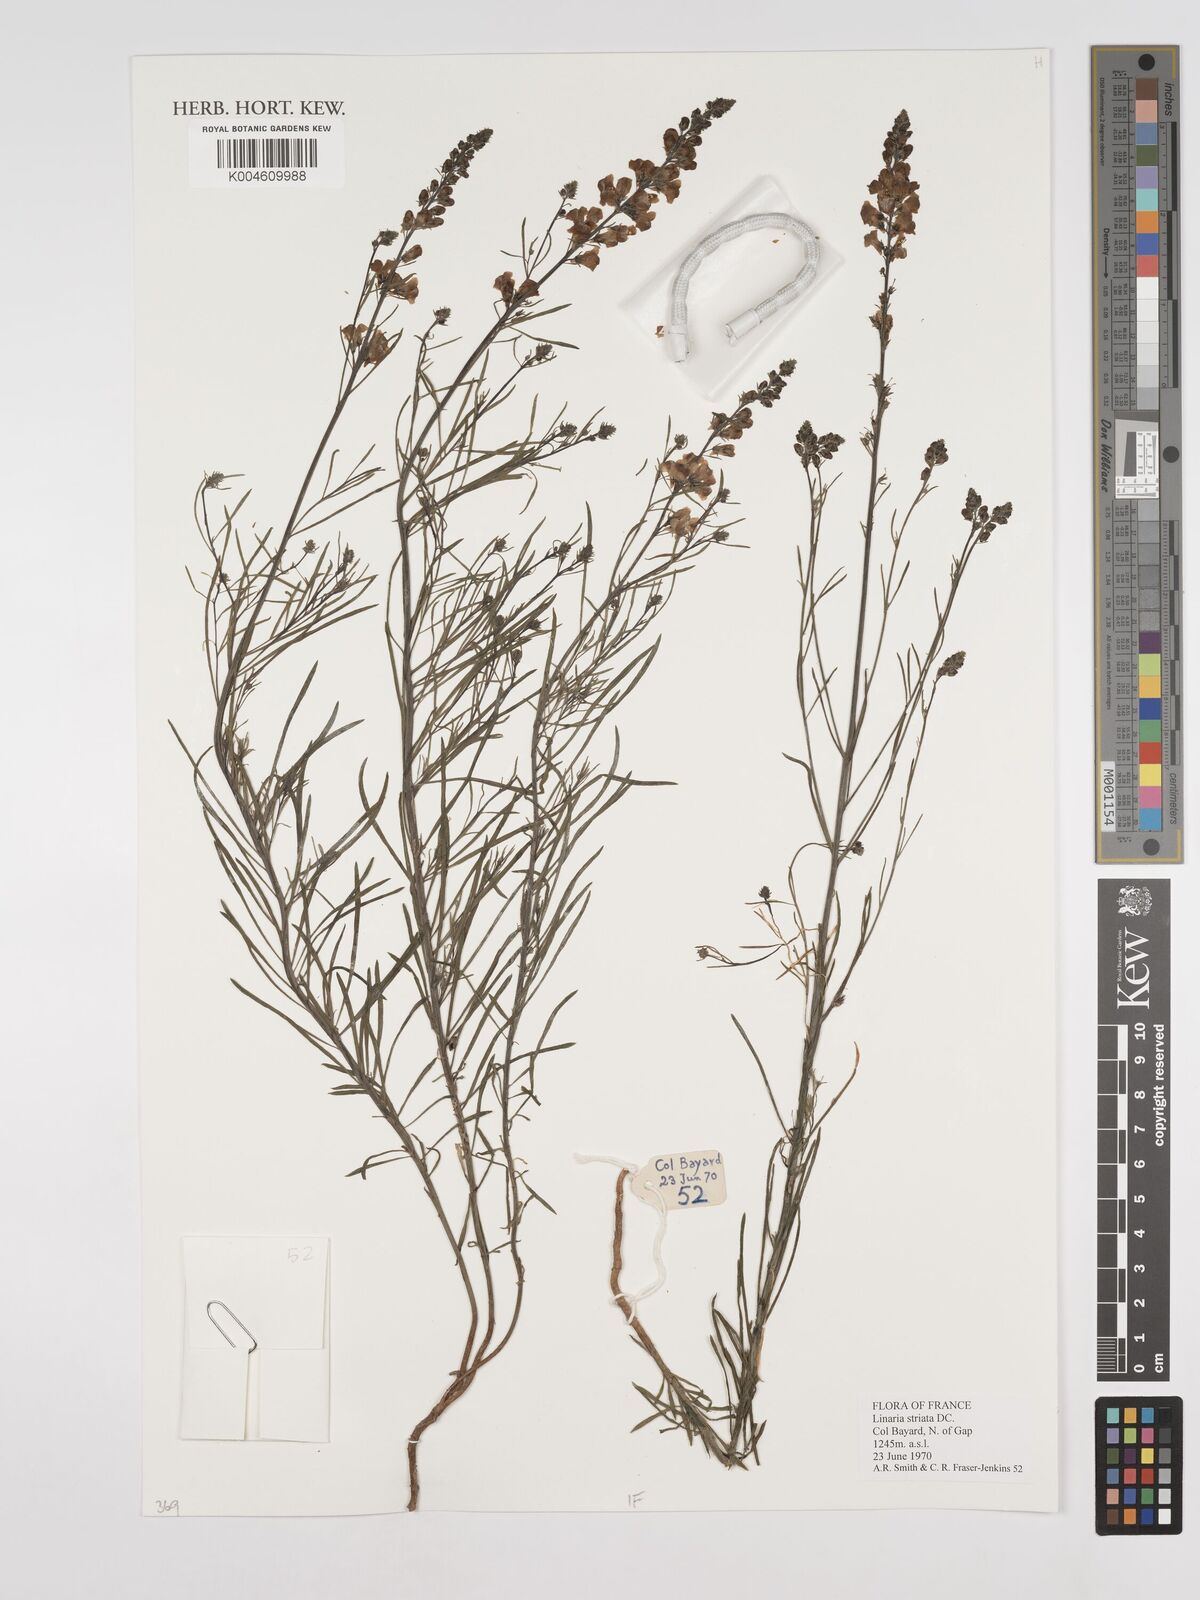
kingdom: Plantae
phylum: Tracheophyta
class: Magnoliopsida
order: Lamiales
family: Plantaginaceae
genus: Linaria
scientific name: Linaria repens
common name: Pale toadflax
